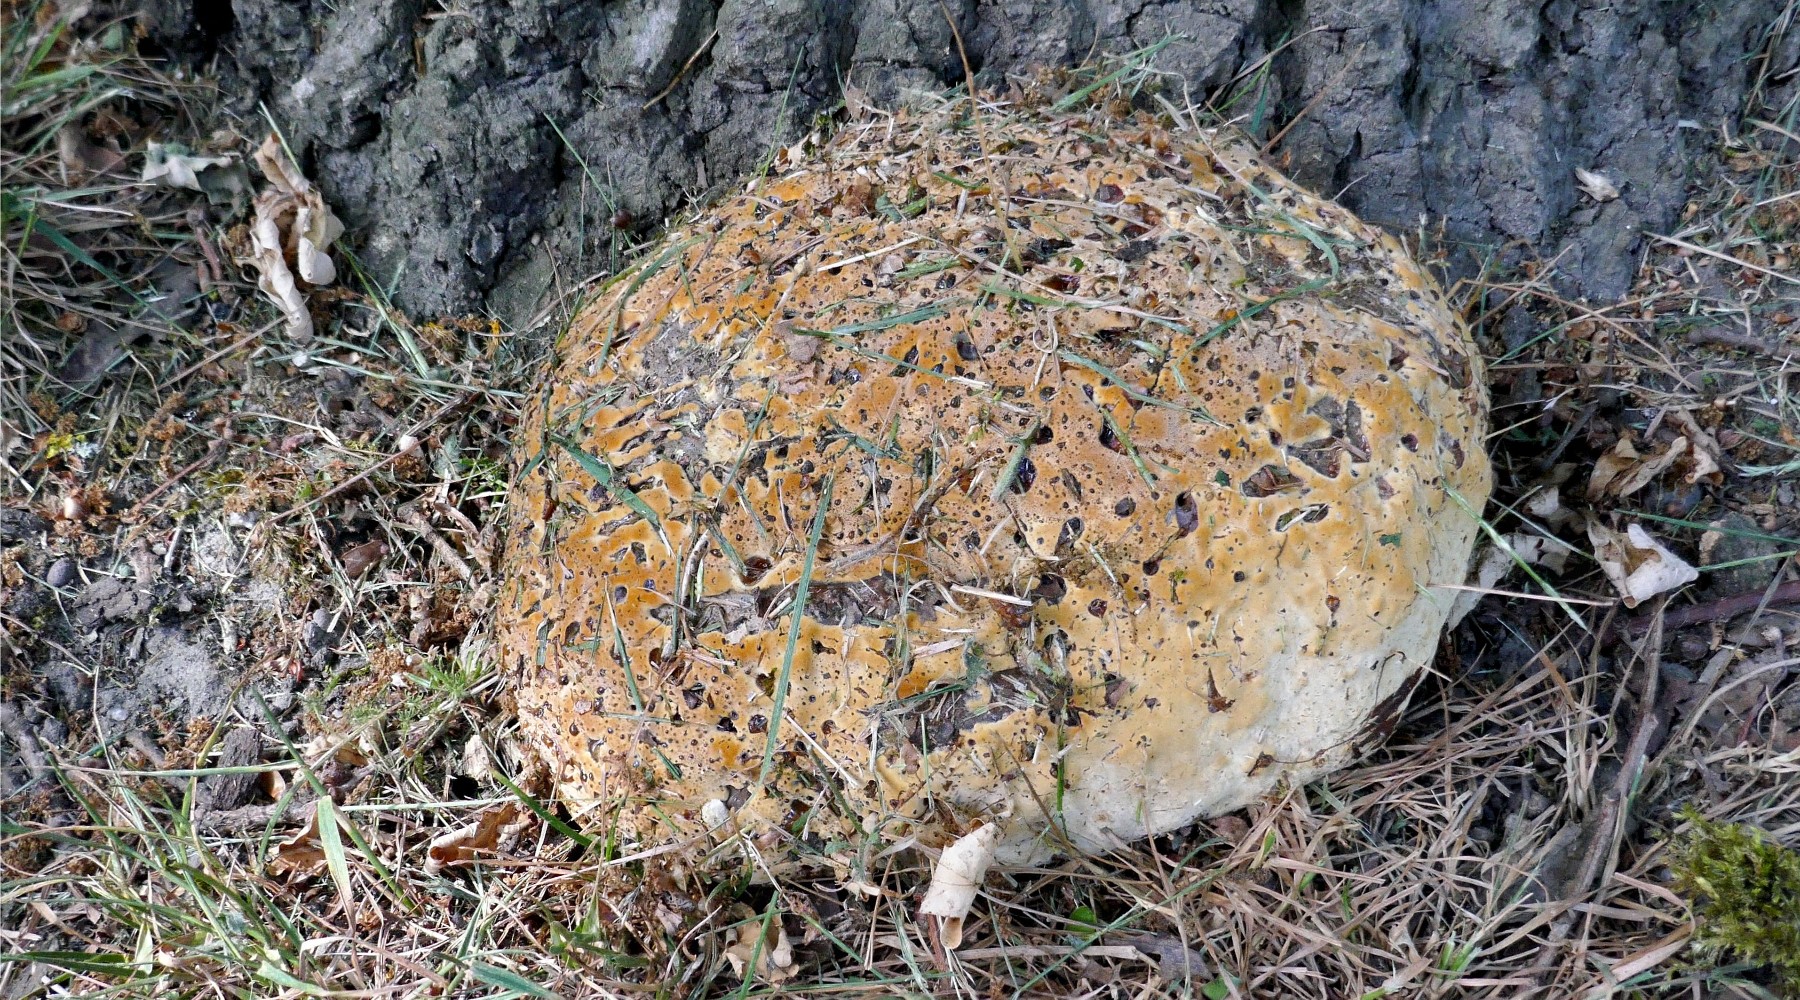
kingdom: Fungi
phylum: Basidiomycota
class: Agaricomycetes
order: Hymenochaetales
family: Hymenochaetaceae
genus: Pseudoinonotus
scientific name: Pseudoinonotus dryadeus
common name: ege-spejlporesvamp
